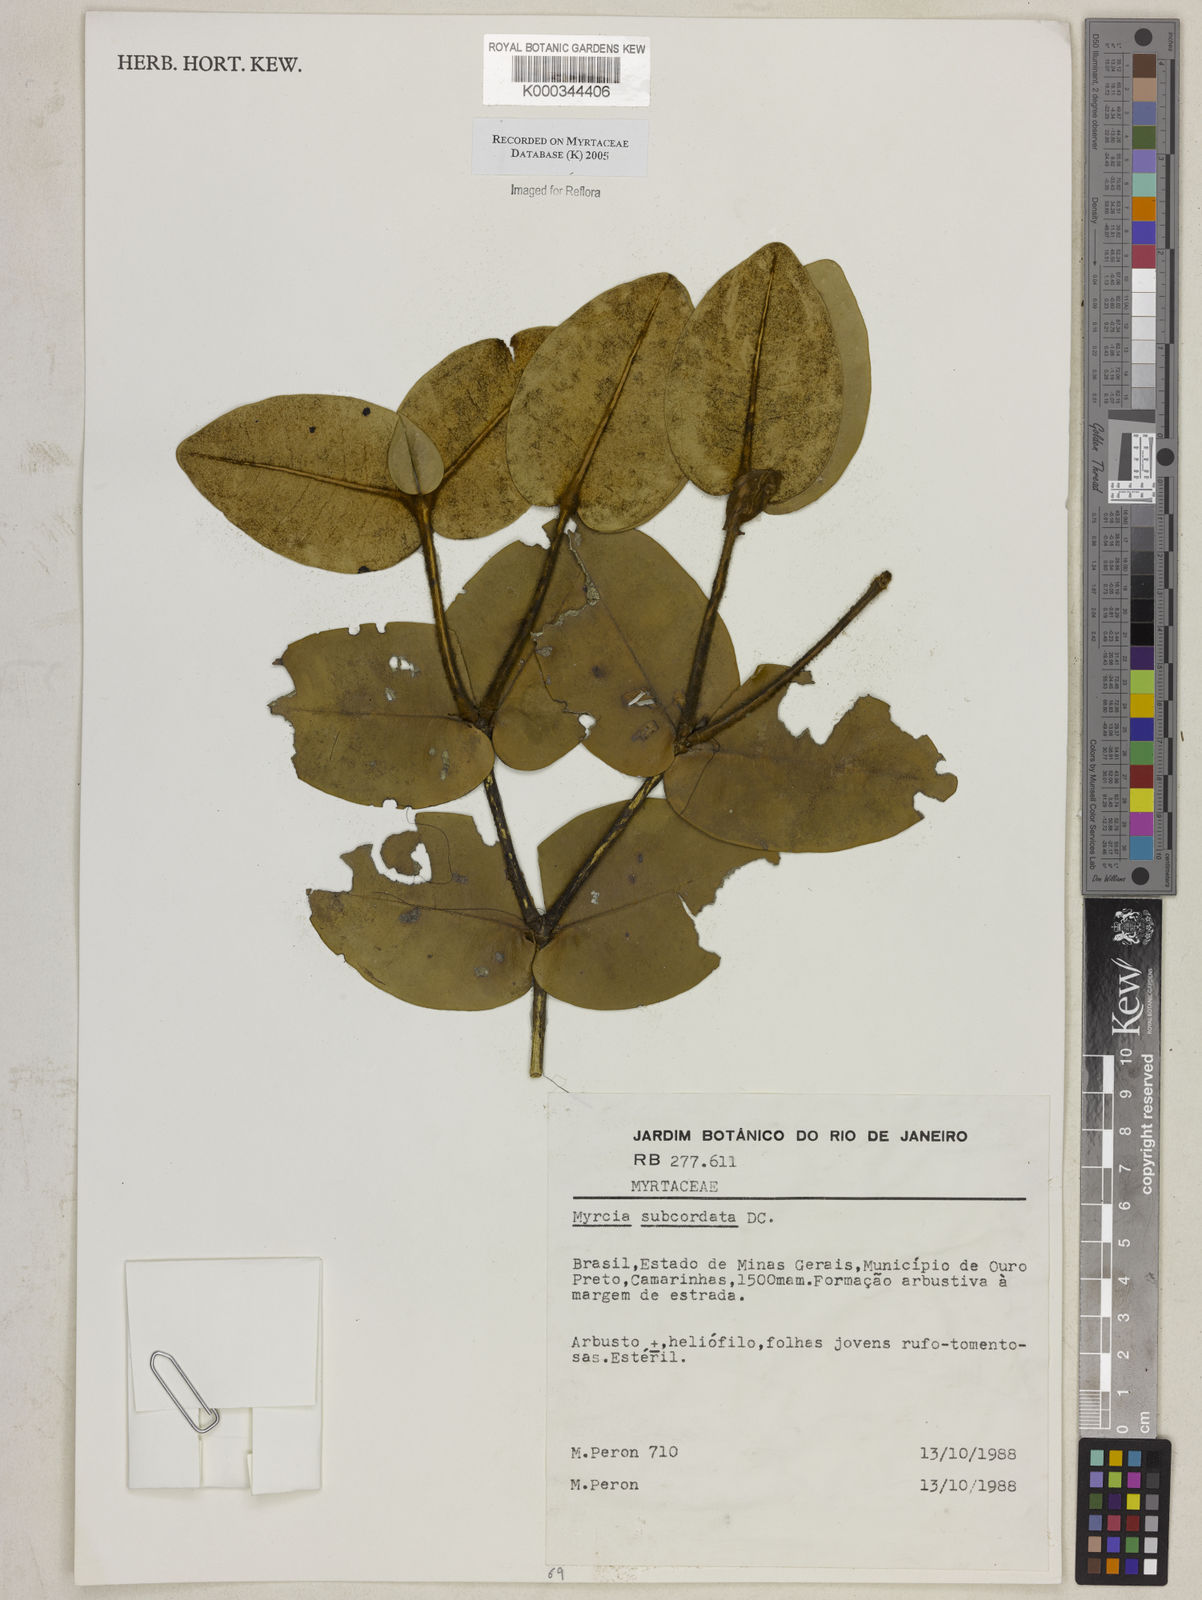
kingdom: Plantae
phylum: Tracheophyta
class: Magnoliopsida
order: Myrtales
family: Myrtaceae
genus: Myrcia
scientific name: Myrcia subcordata
